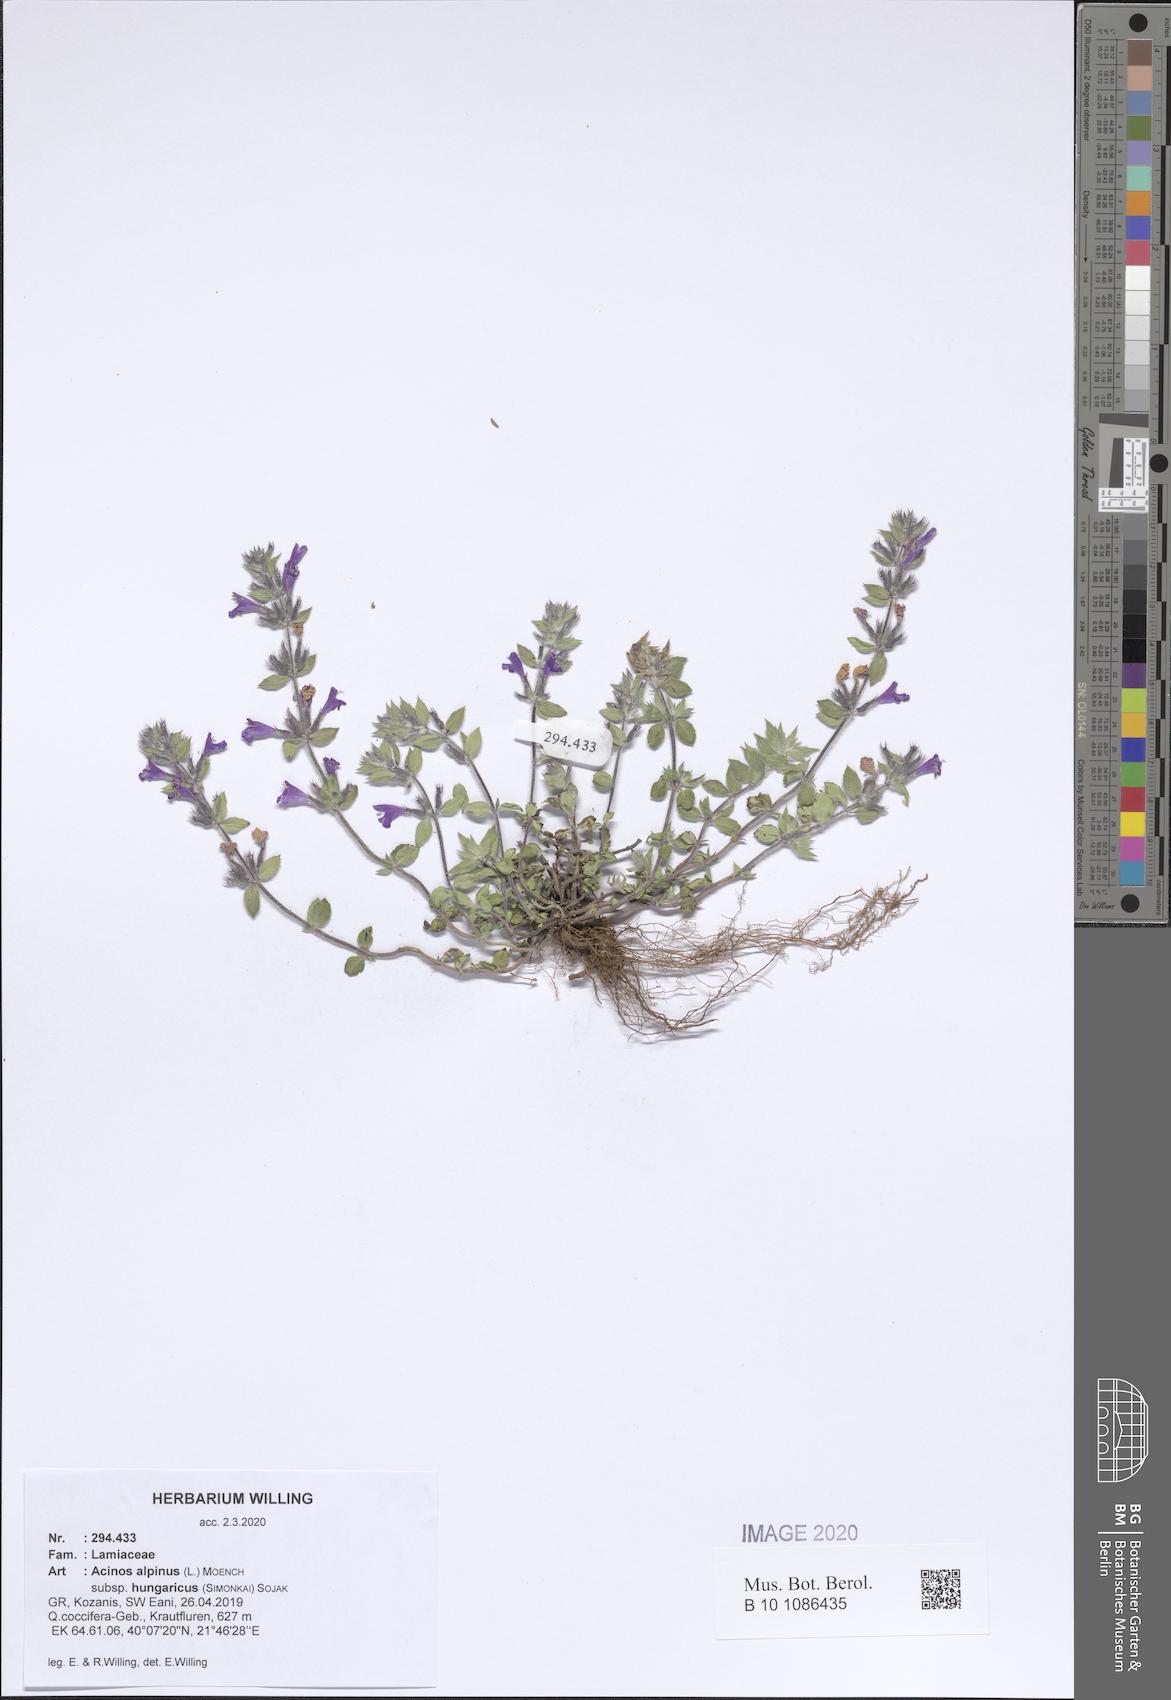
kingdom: Plantae
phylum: Tracheophyta
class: Magnoliopsida
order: Lamiales
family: Lamiaceae
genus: Clinopodium
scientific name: Clinopodium alpinum
